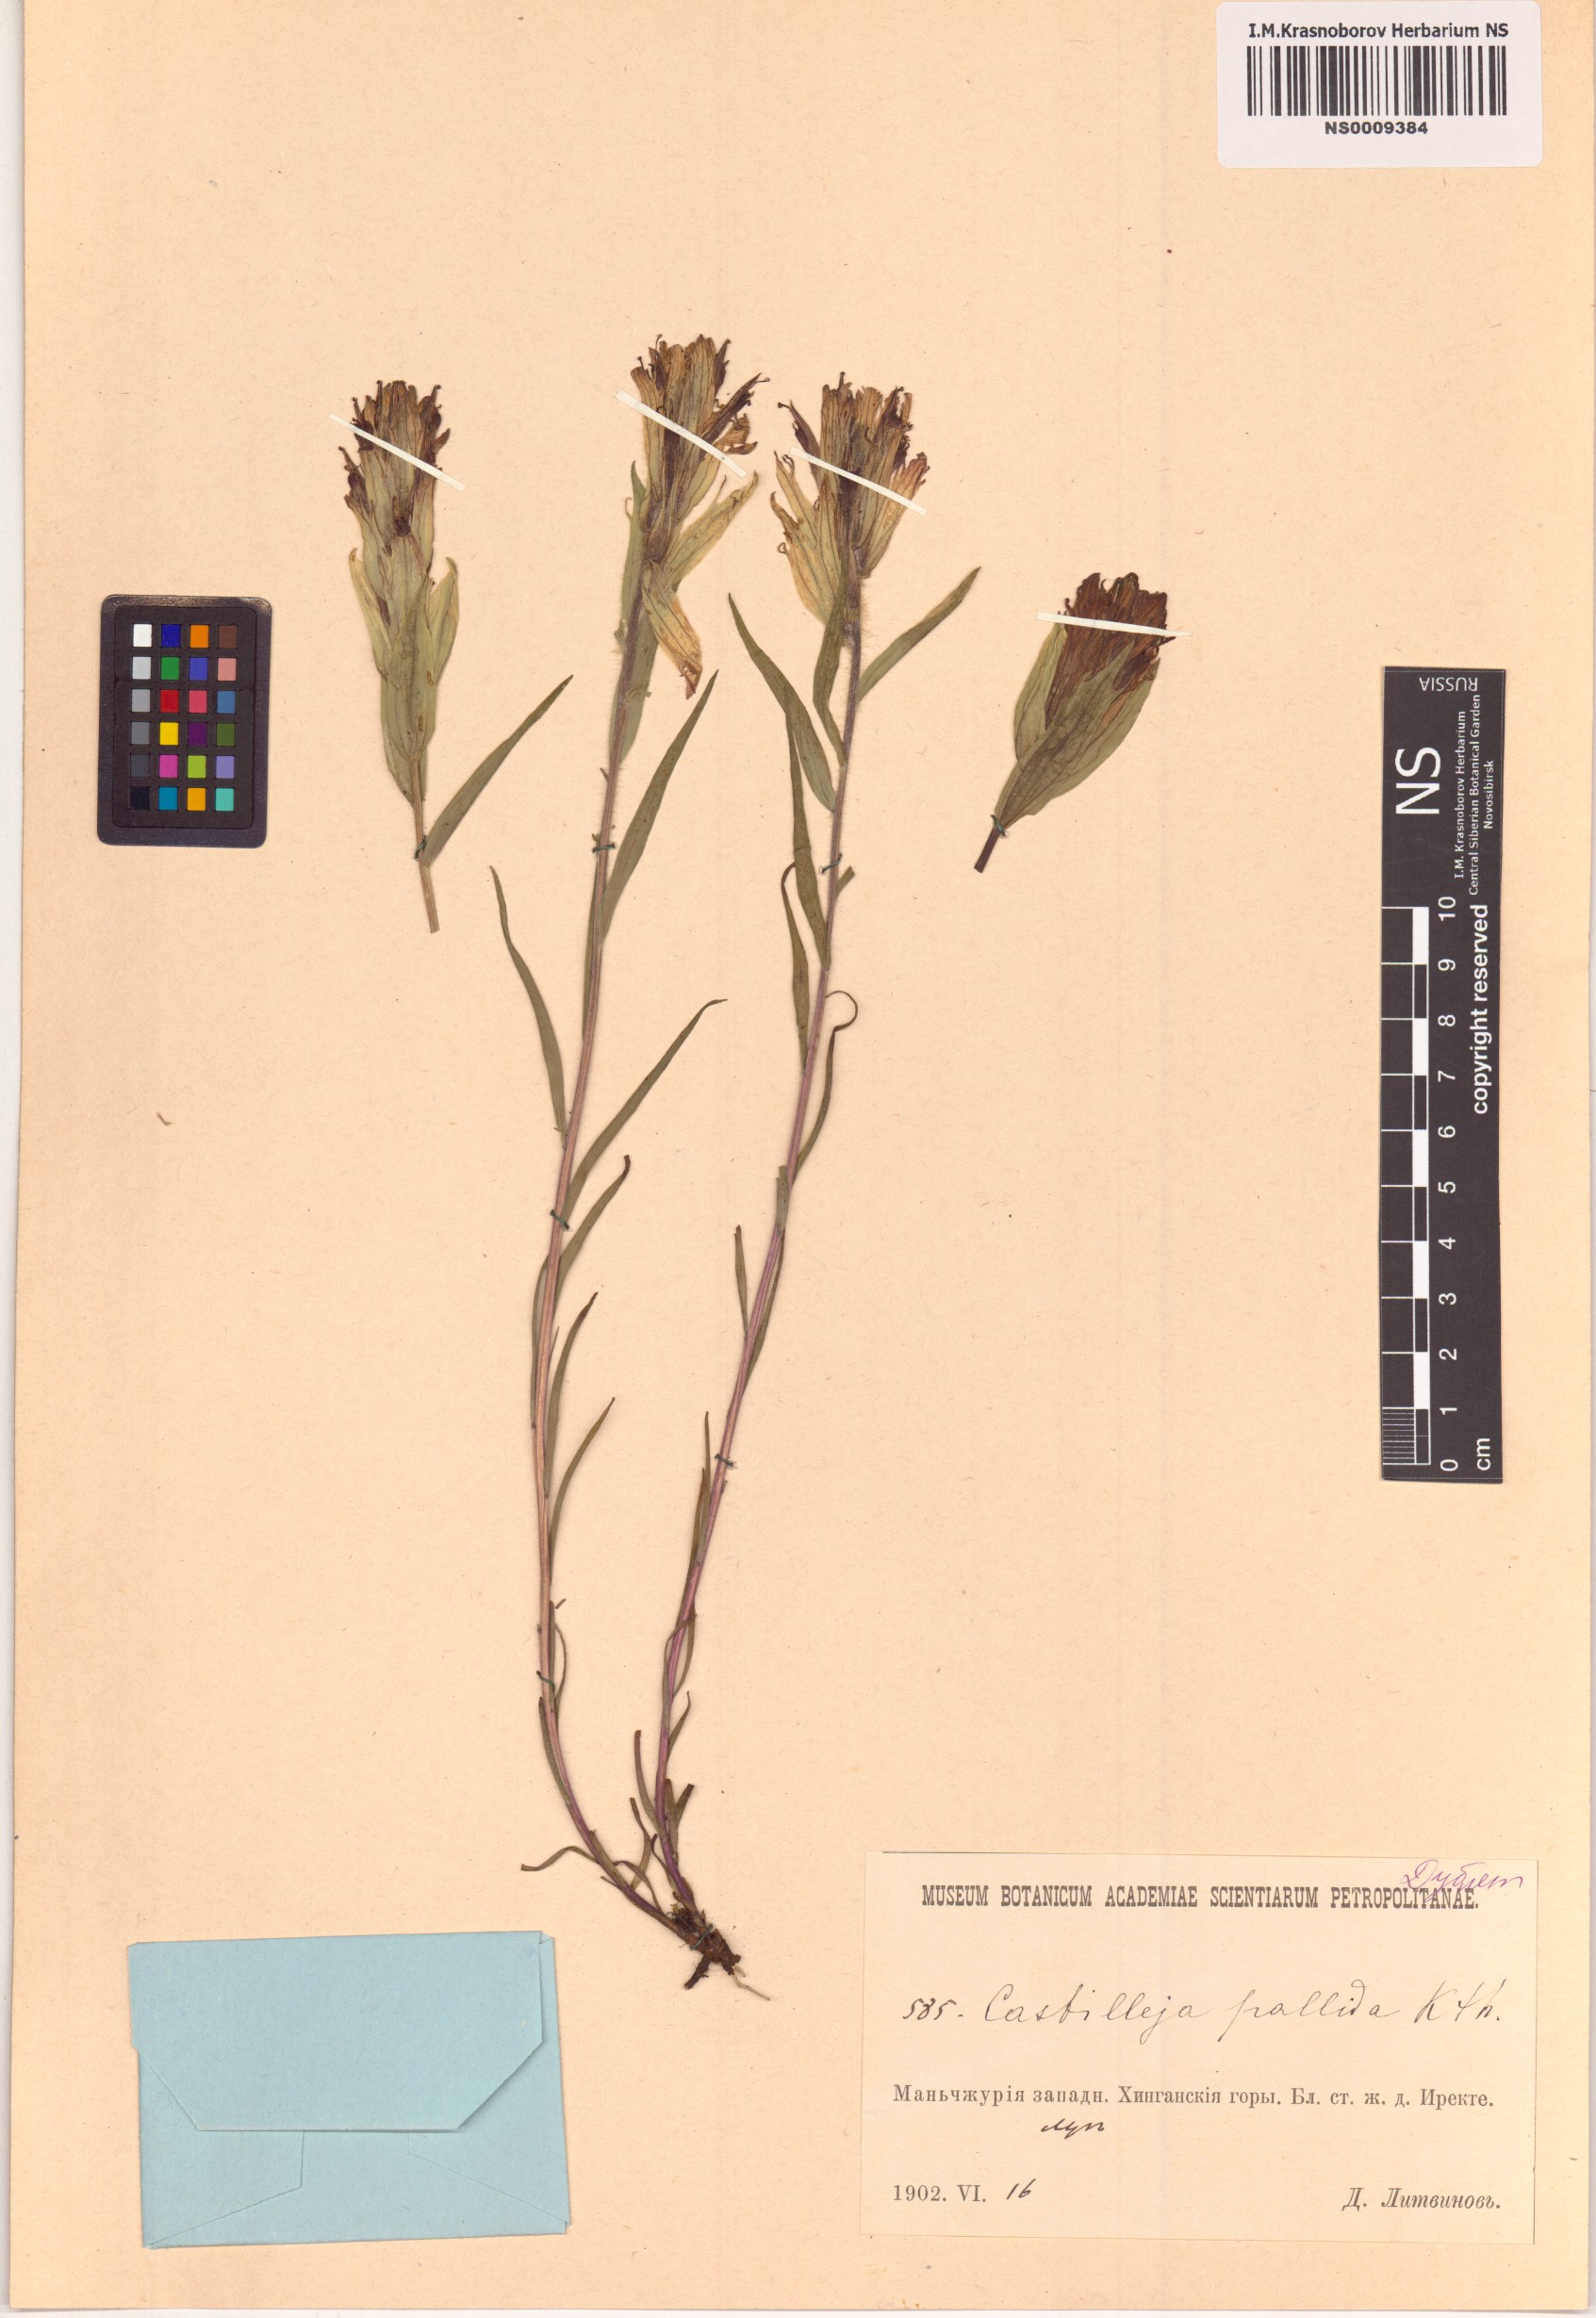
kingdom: Plantae
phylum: Tracheophyta
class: Magnoliopsida
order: Lamiales
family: Orobanchaceae
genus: Castilleja
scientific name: Castilleja pallida
